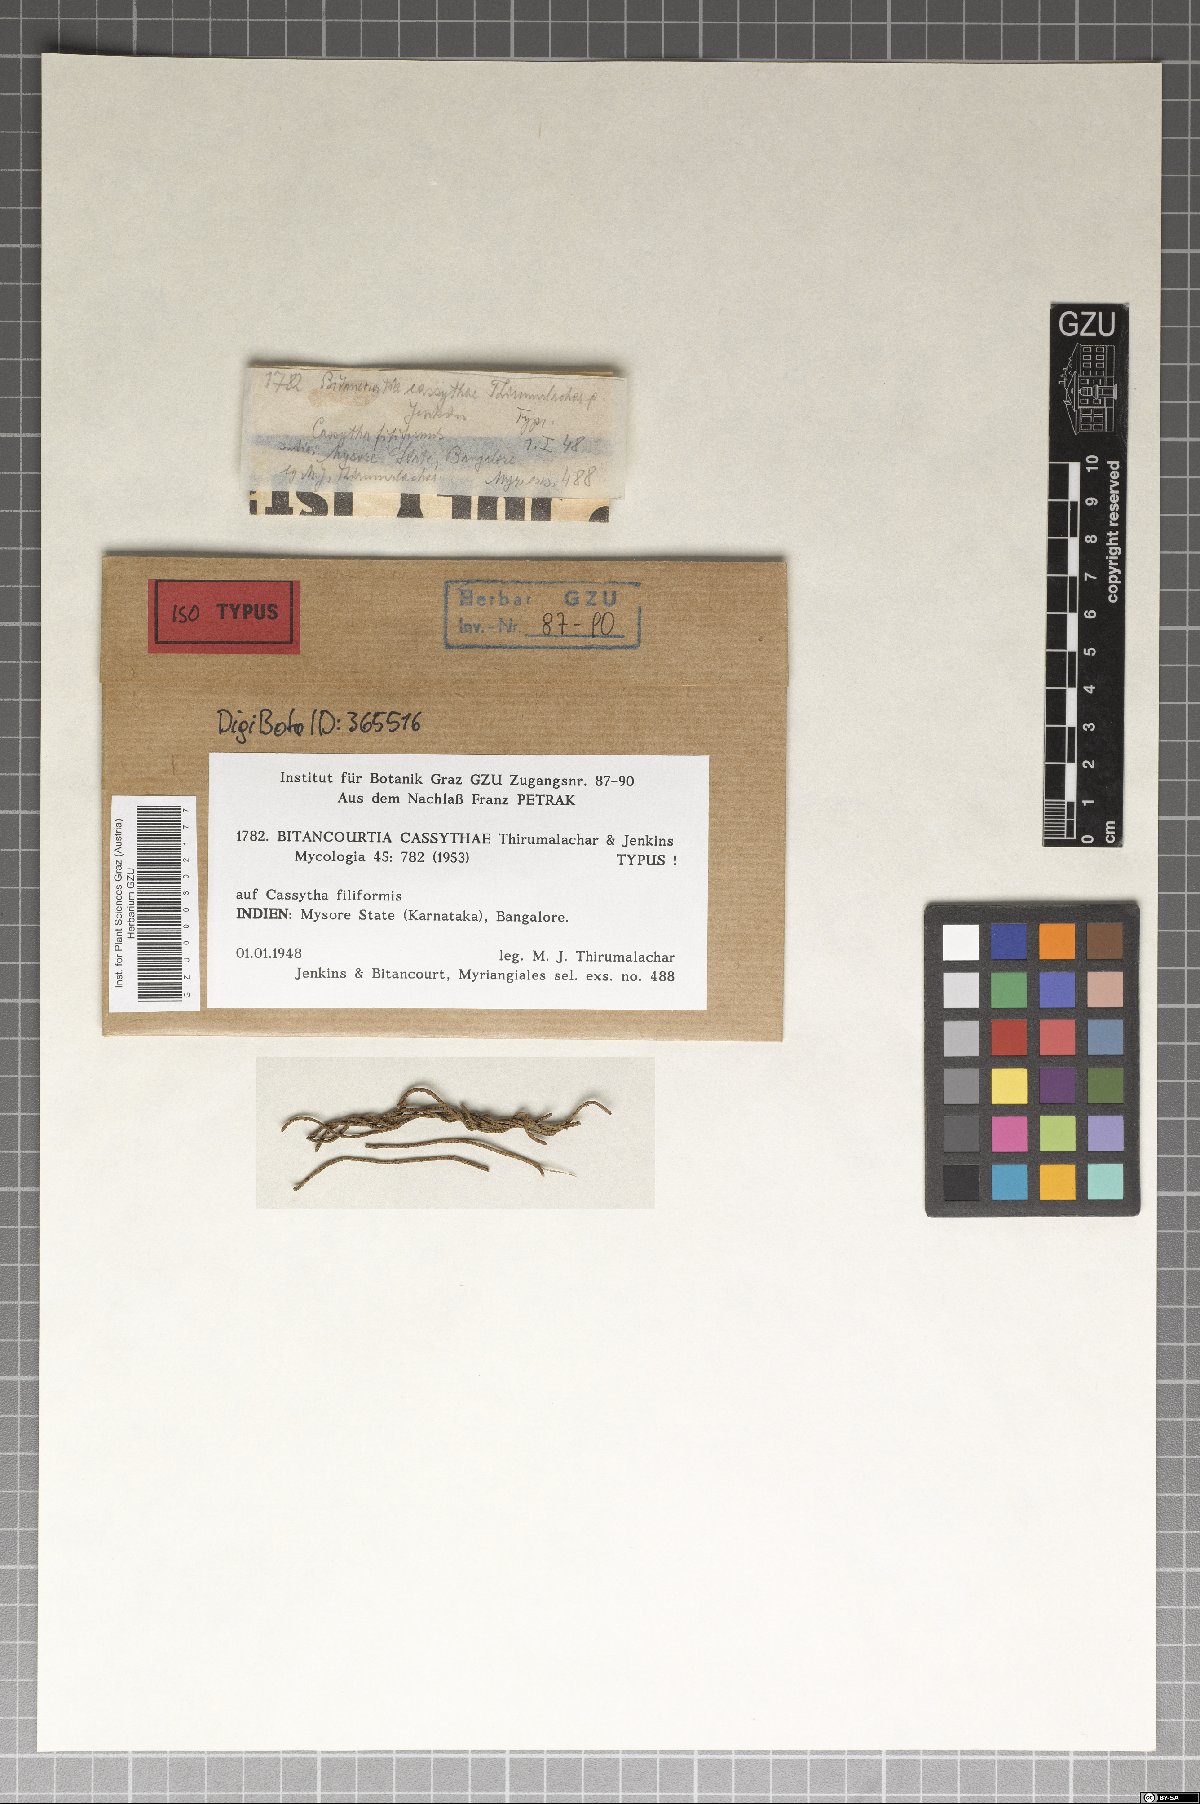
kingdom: Fungi
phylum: Ascomycota
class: Dothideomycetes
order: Myriangiales
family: Elsinoaceae
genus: Elsinoe
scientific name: Elsinoe cassythae
